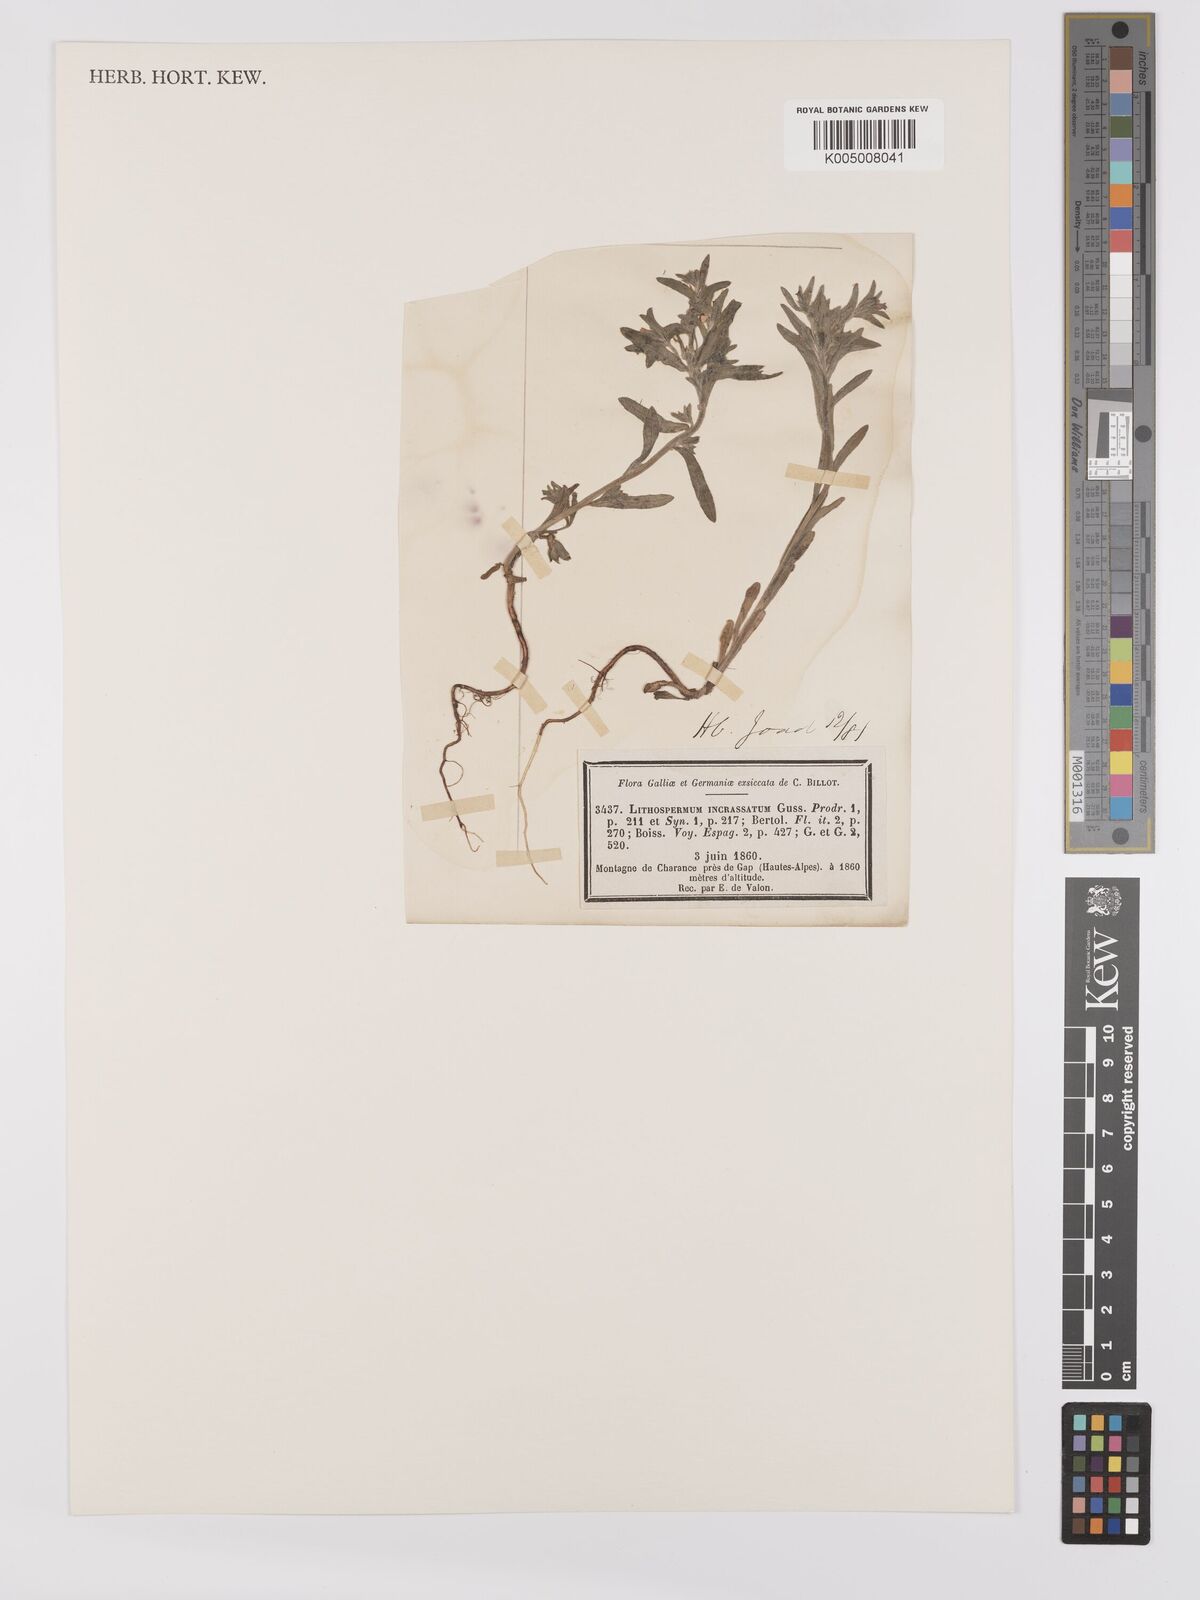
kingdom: Plantae
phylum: Tracheophyta
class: Magnoliopsida
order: Boraginales
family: Boraginaceae
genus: Buglossoides
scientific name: Buglossoides incrassata
